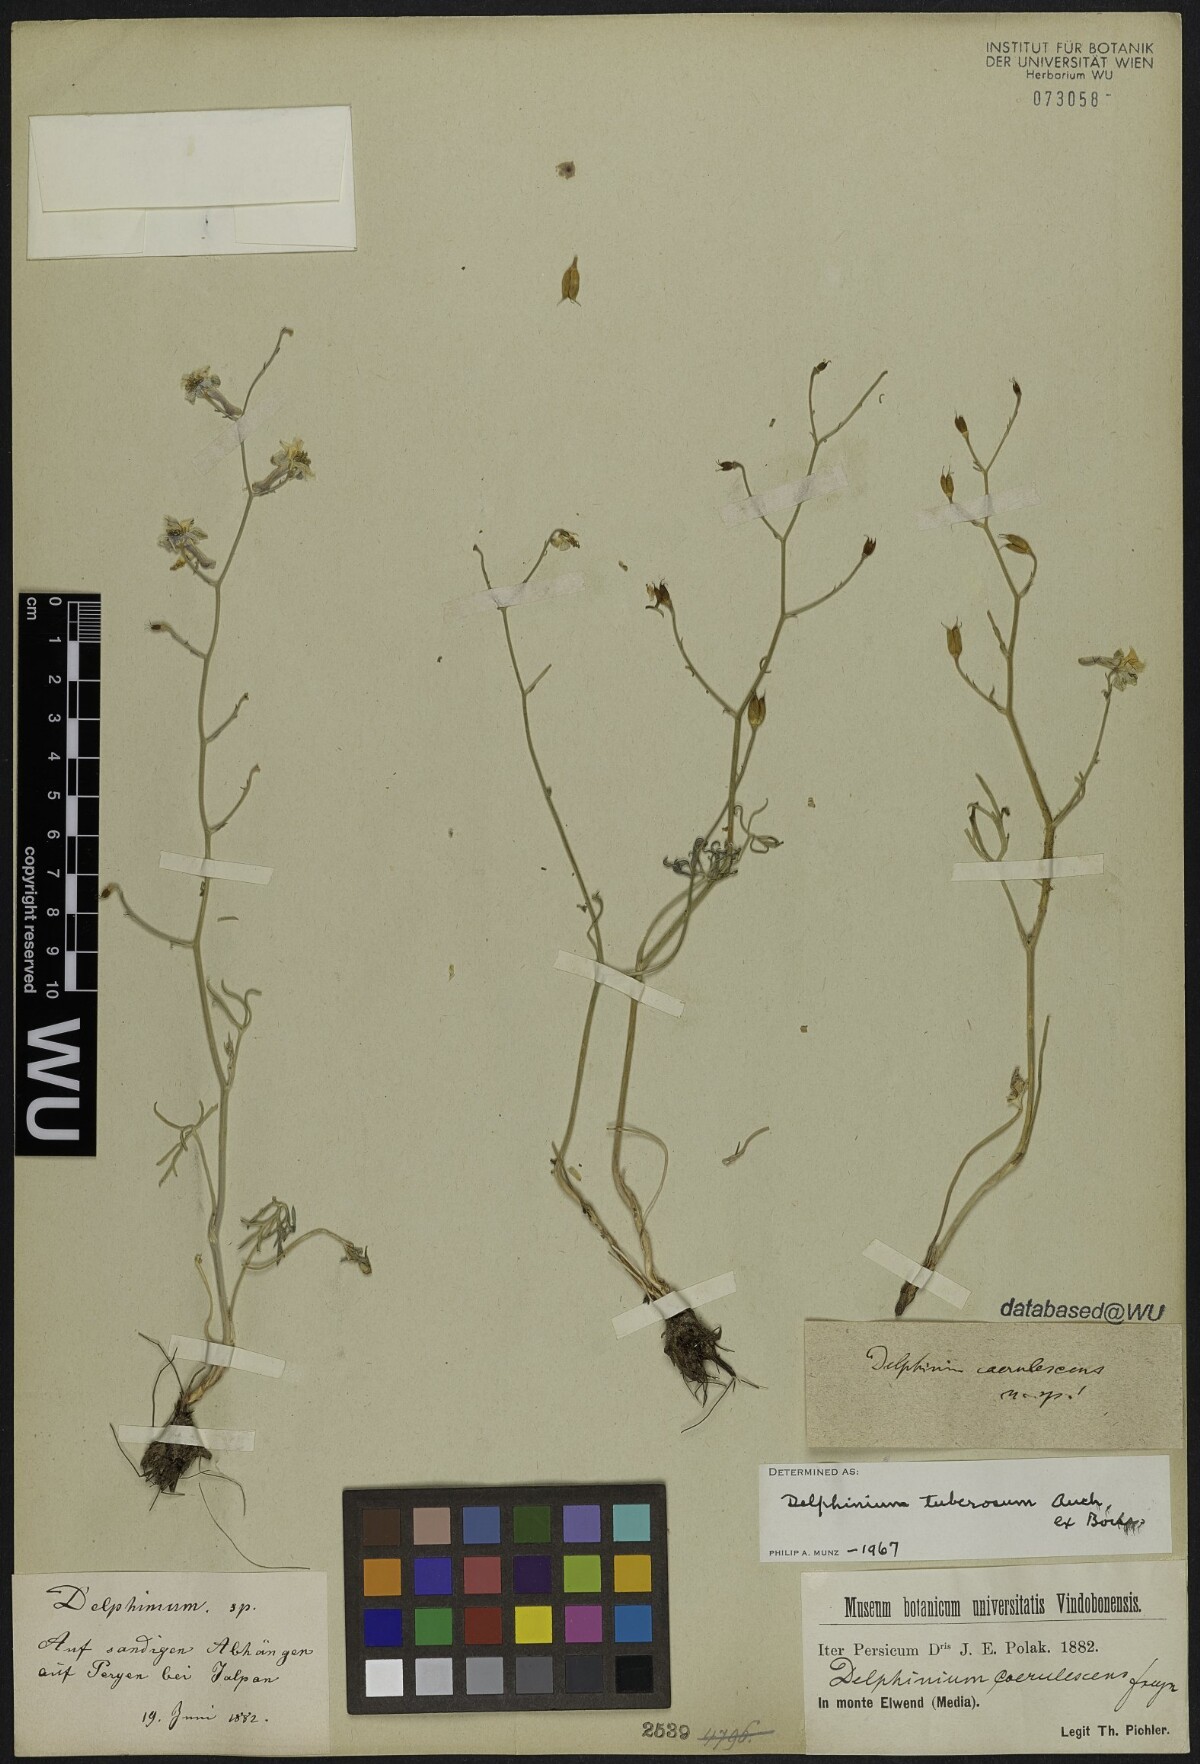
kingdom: Plantae
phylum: Tracheophyta
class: Magnoliopsida
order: Ranunculales
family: Ranunculaceae
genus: Delphinium
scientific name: Delphinium tuberosum
